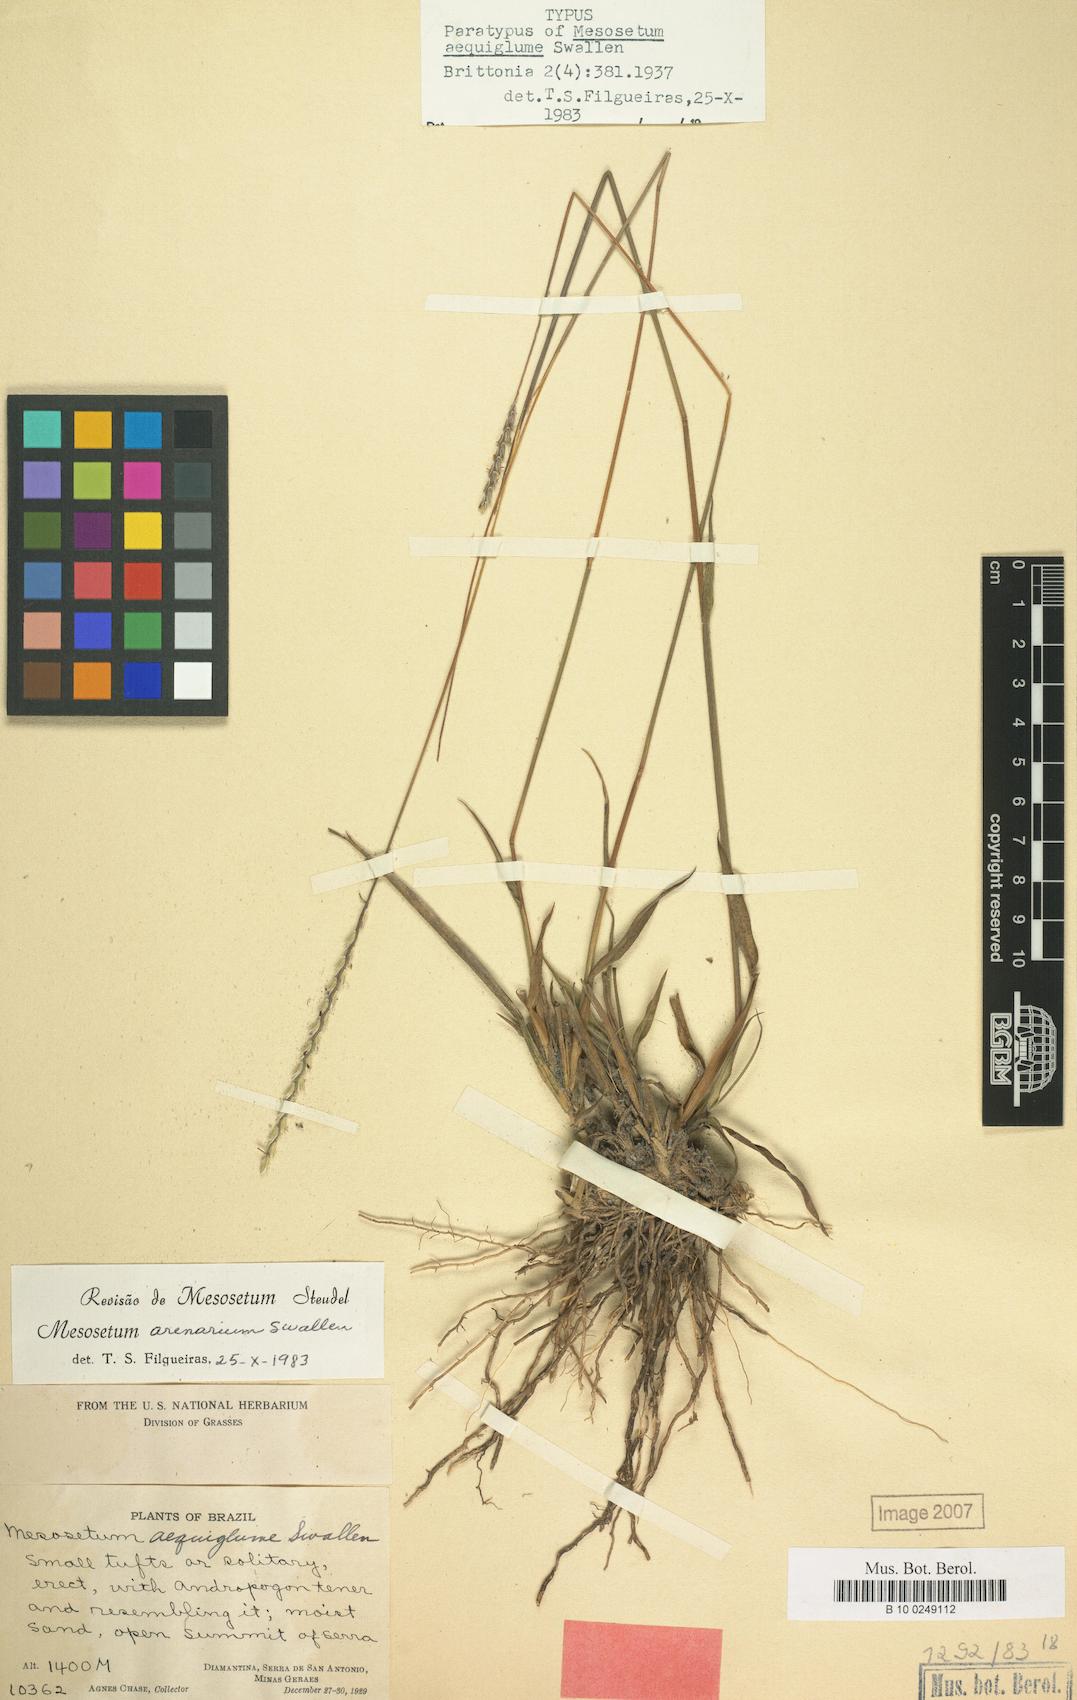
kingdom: Plantae
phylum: Tracheophyta
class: Liliopsida
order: Poales
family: Poaceae
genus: Mesosetum
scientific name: Mesosetum arenarium
